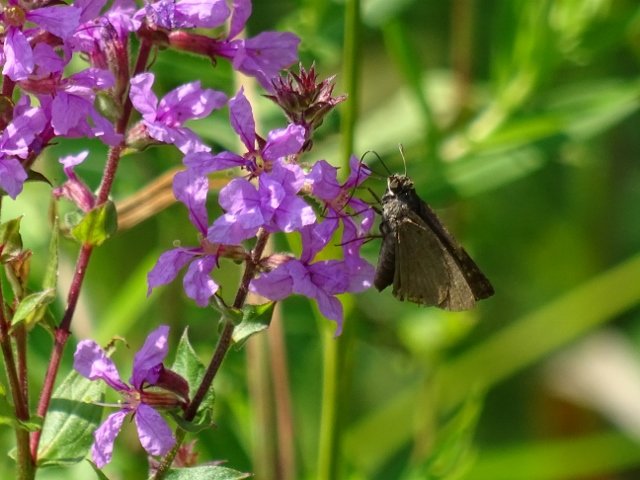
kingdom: Animalia
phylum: Arthropoda
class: Insecta
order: Lepidoptera
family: Hesperiidae
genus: Euphyes
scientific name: Euphyes vestris
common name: Dun Skipper
